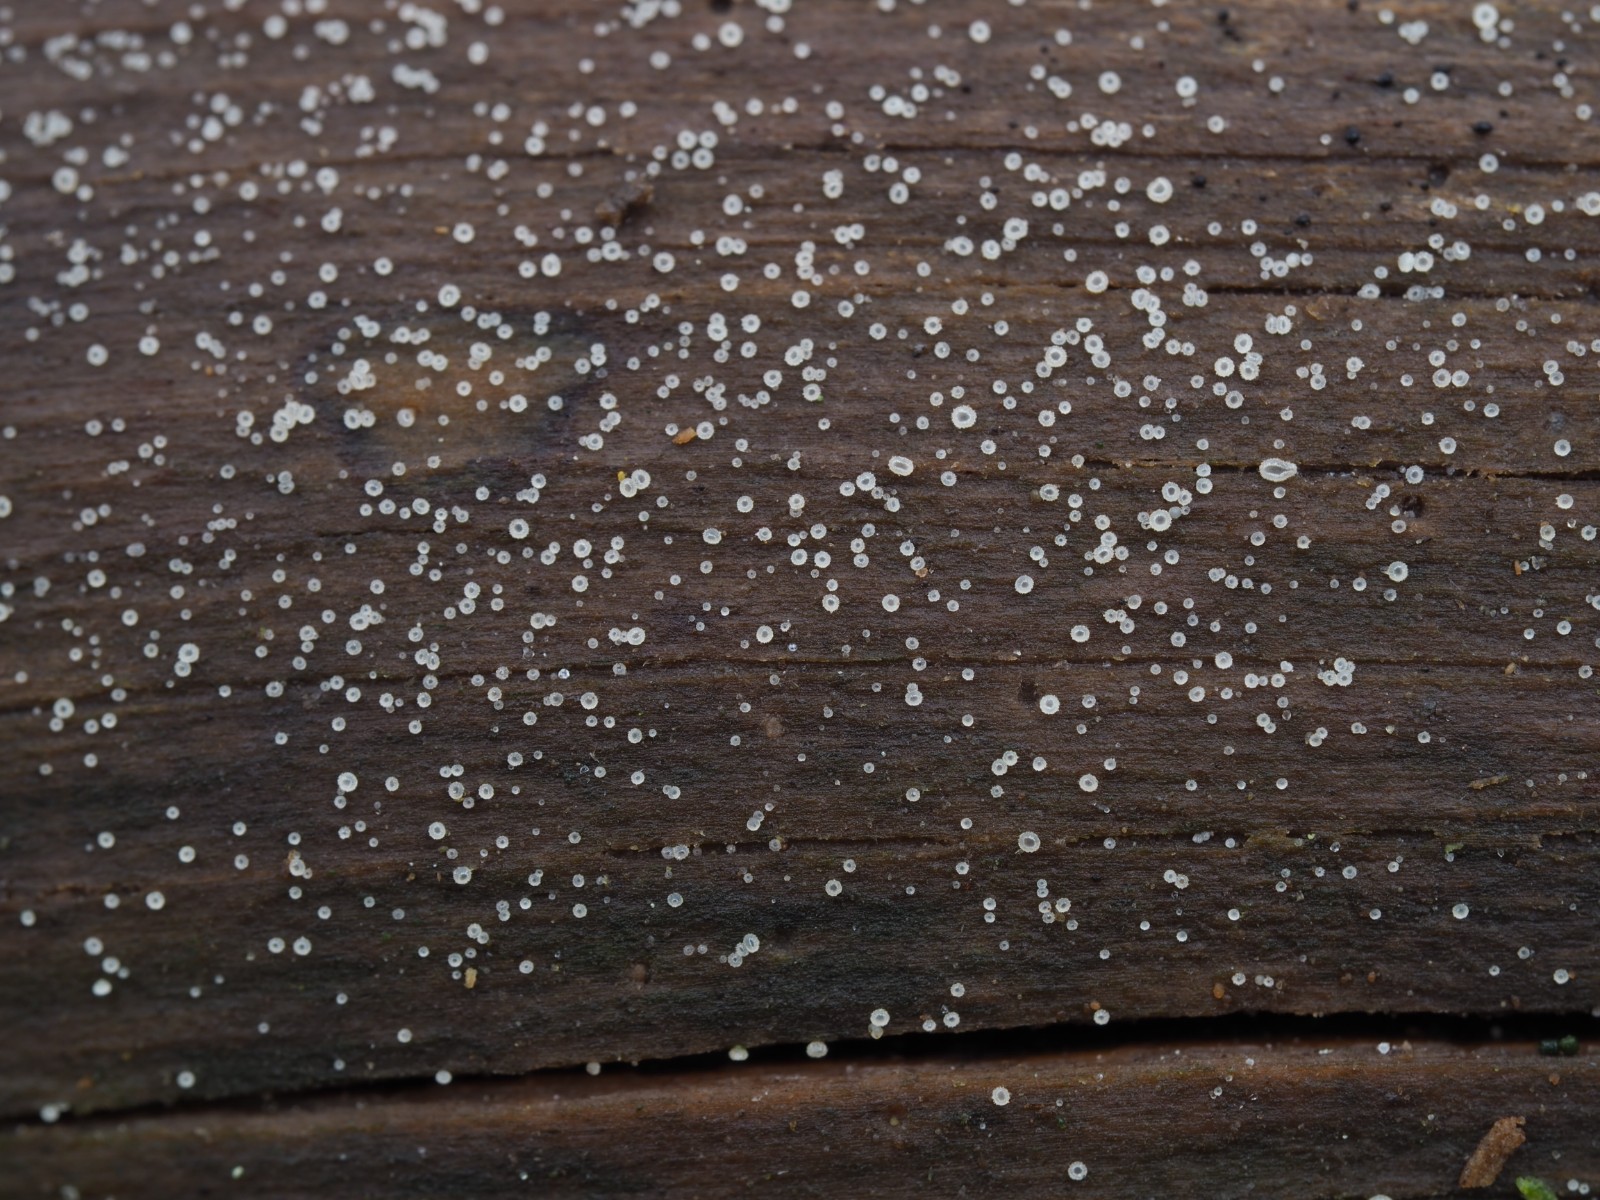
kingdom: Fungi
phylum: Ascomycota
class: Leotiomycetes
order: Helotiales
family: Hyaloscyphaceae
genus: Hyaloscypha
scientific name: Hyaloscypha
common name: klarskive
